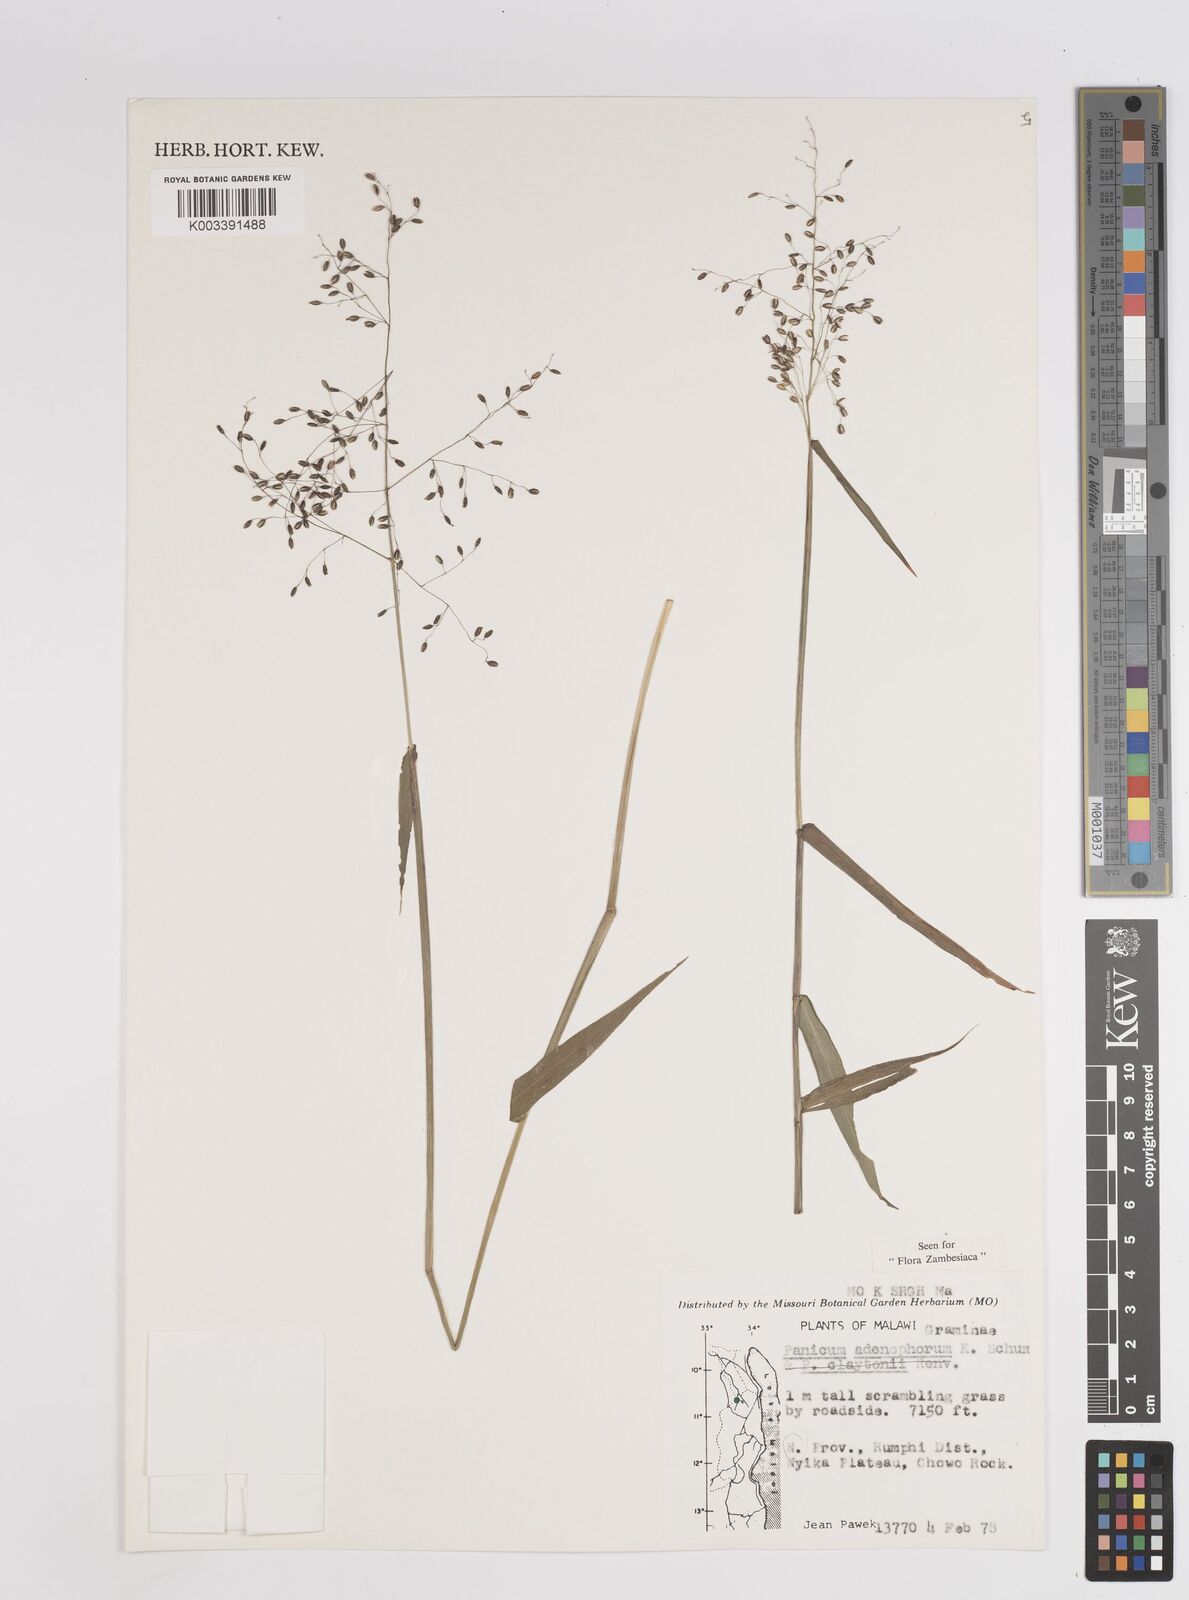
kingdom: Plantae
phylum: Tracheophyta
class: Liliopsida
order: Poales
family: Poaceae
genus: Adenochloa
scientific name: Adenochloa adenophora
